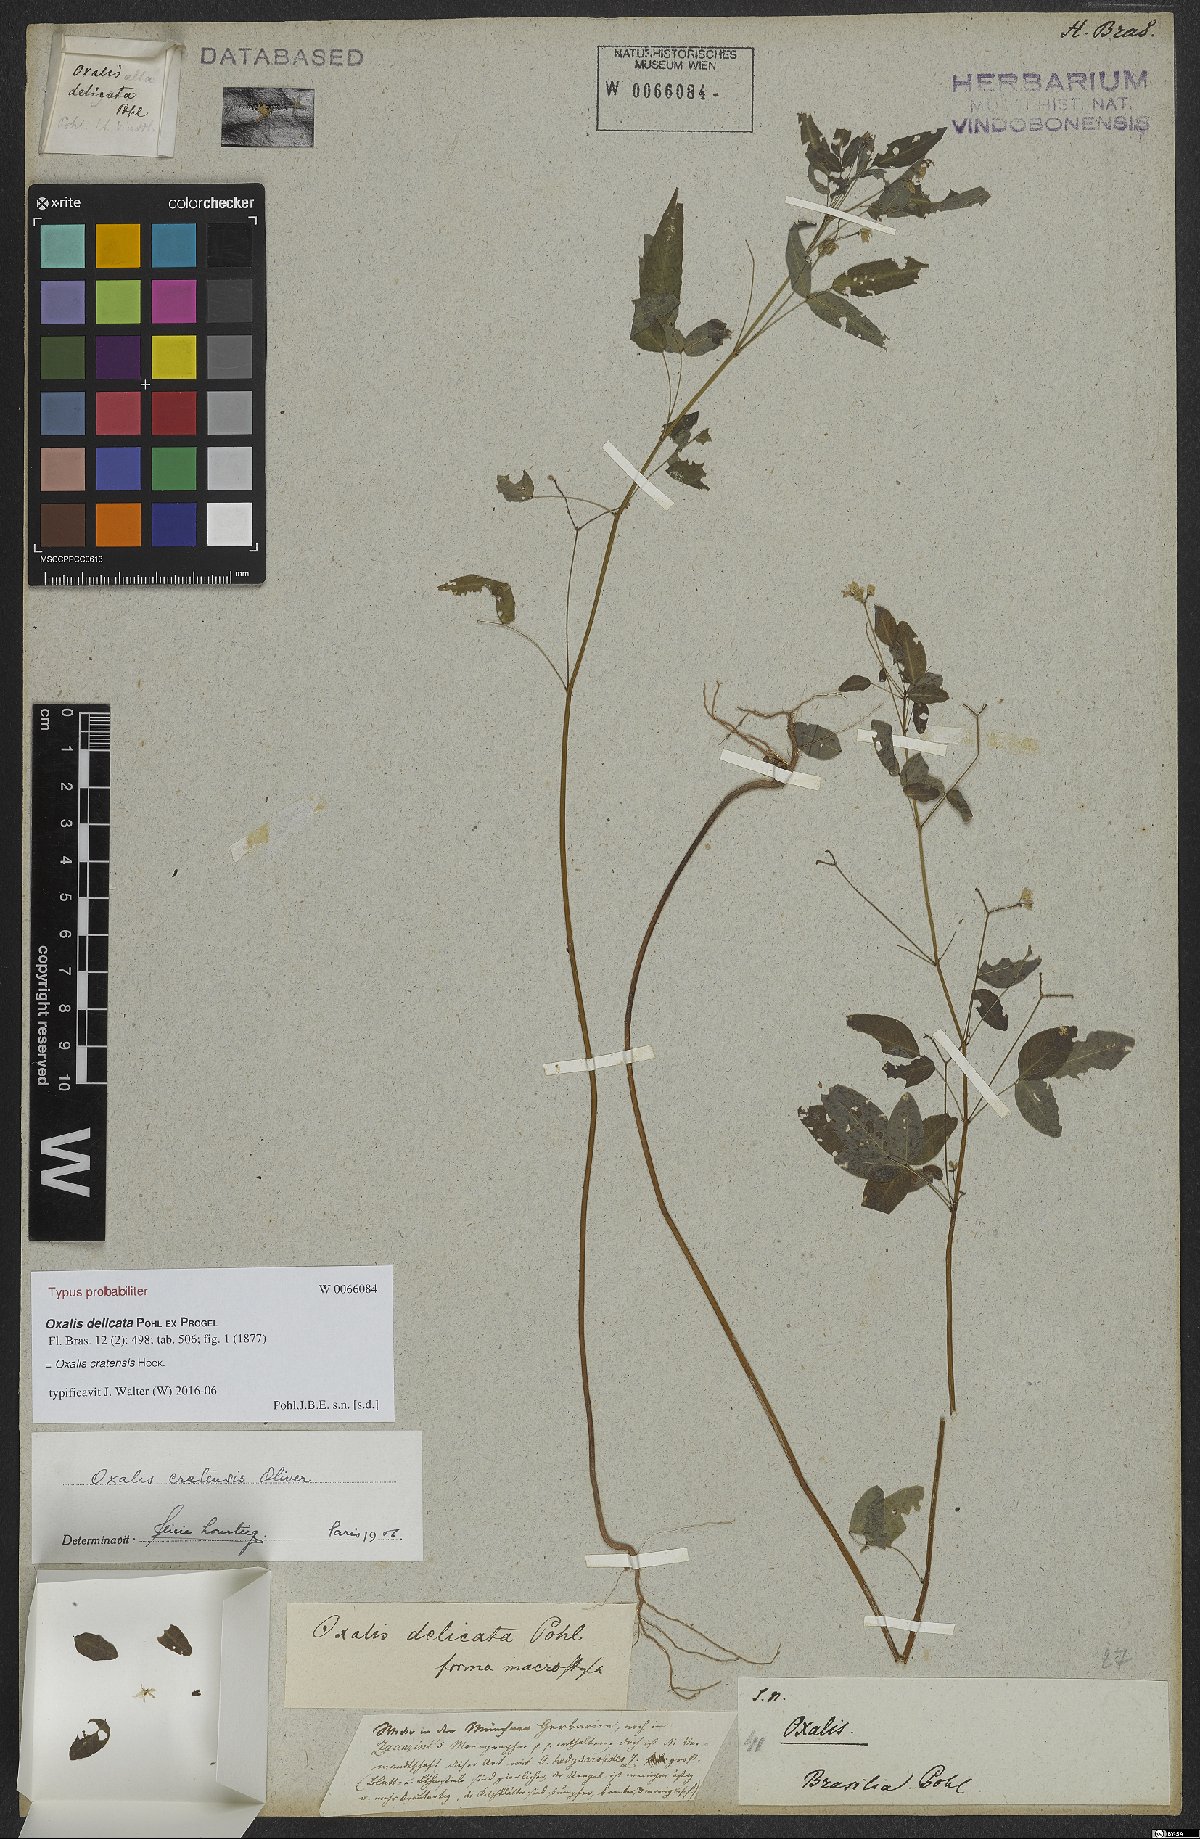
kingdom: Plantae
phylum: Tracheophyta
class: Magnoliopsida
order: Oxalidales
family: Oxalidaceae
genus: Oxalis
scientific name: Oxalis cratensis
